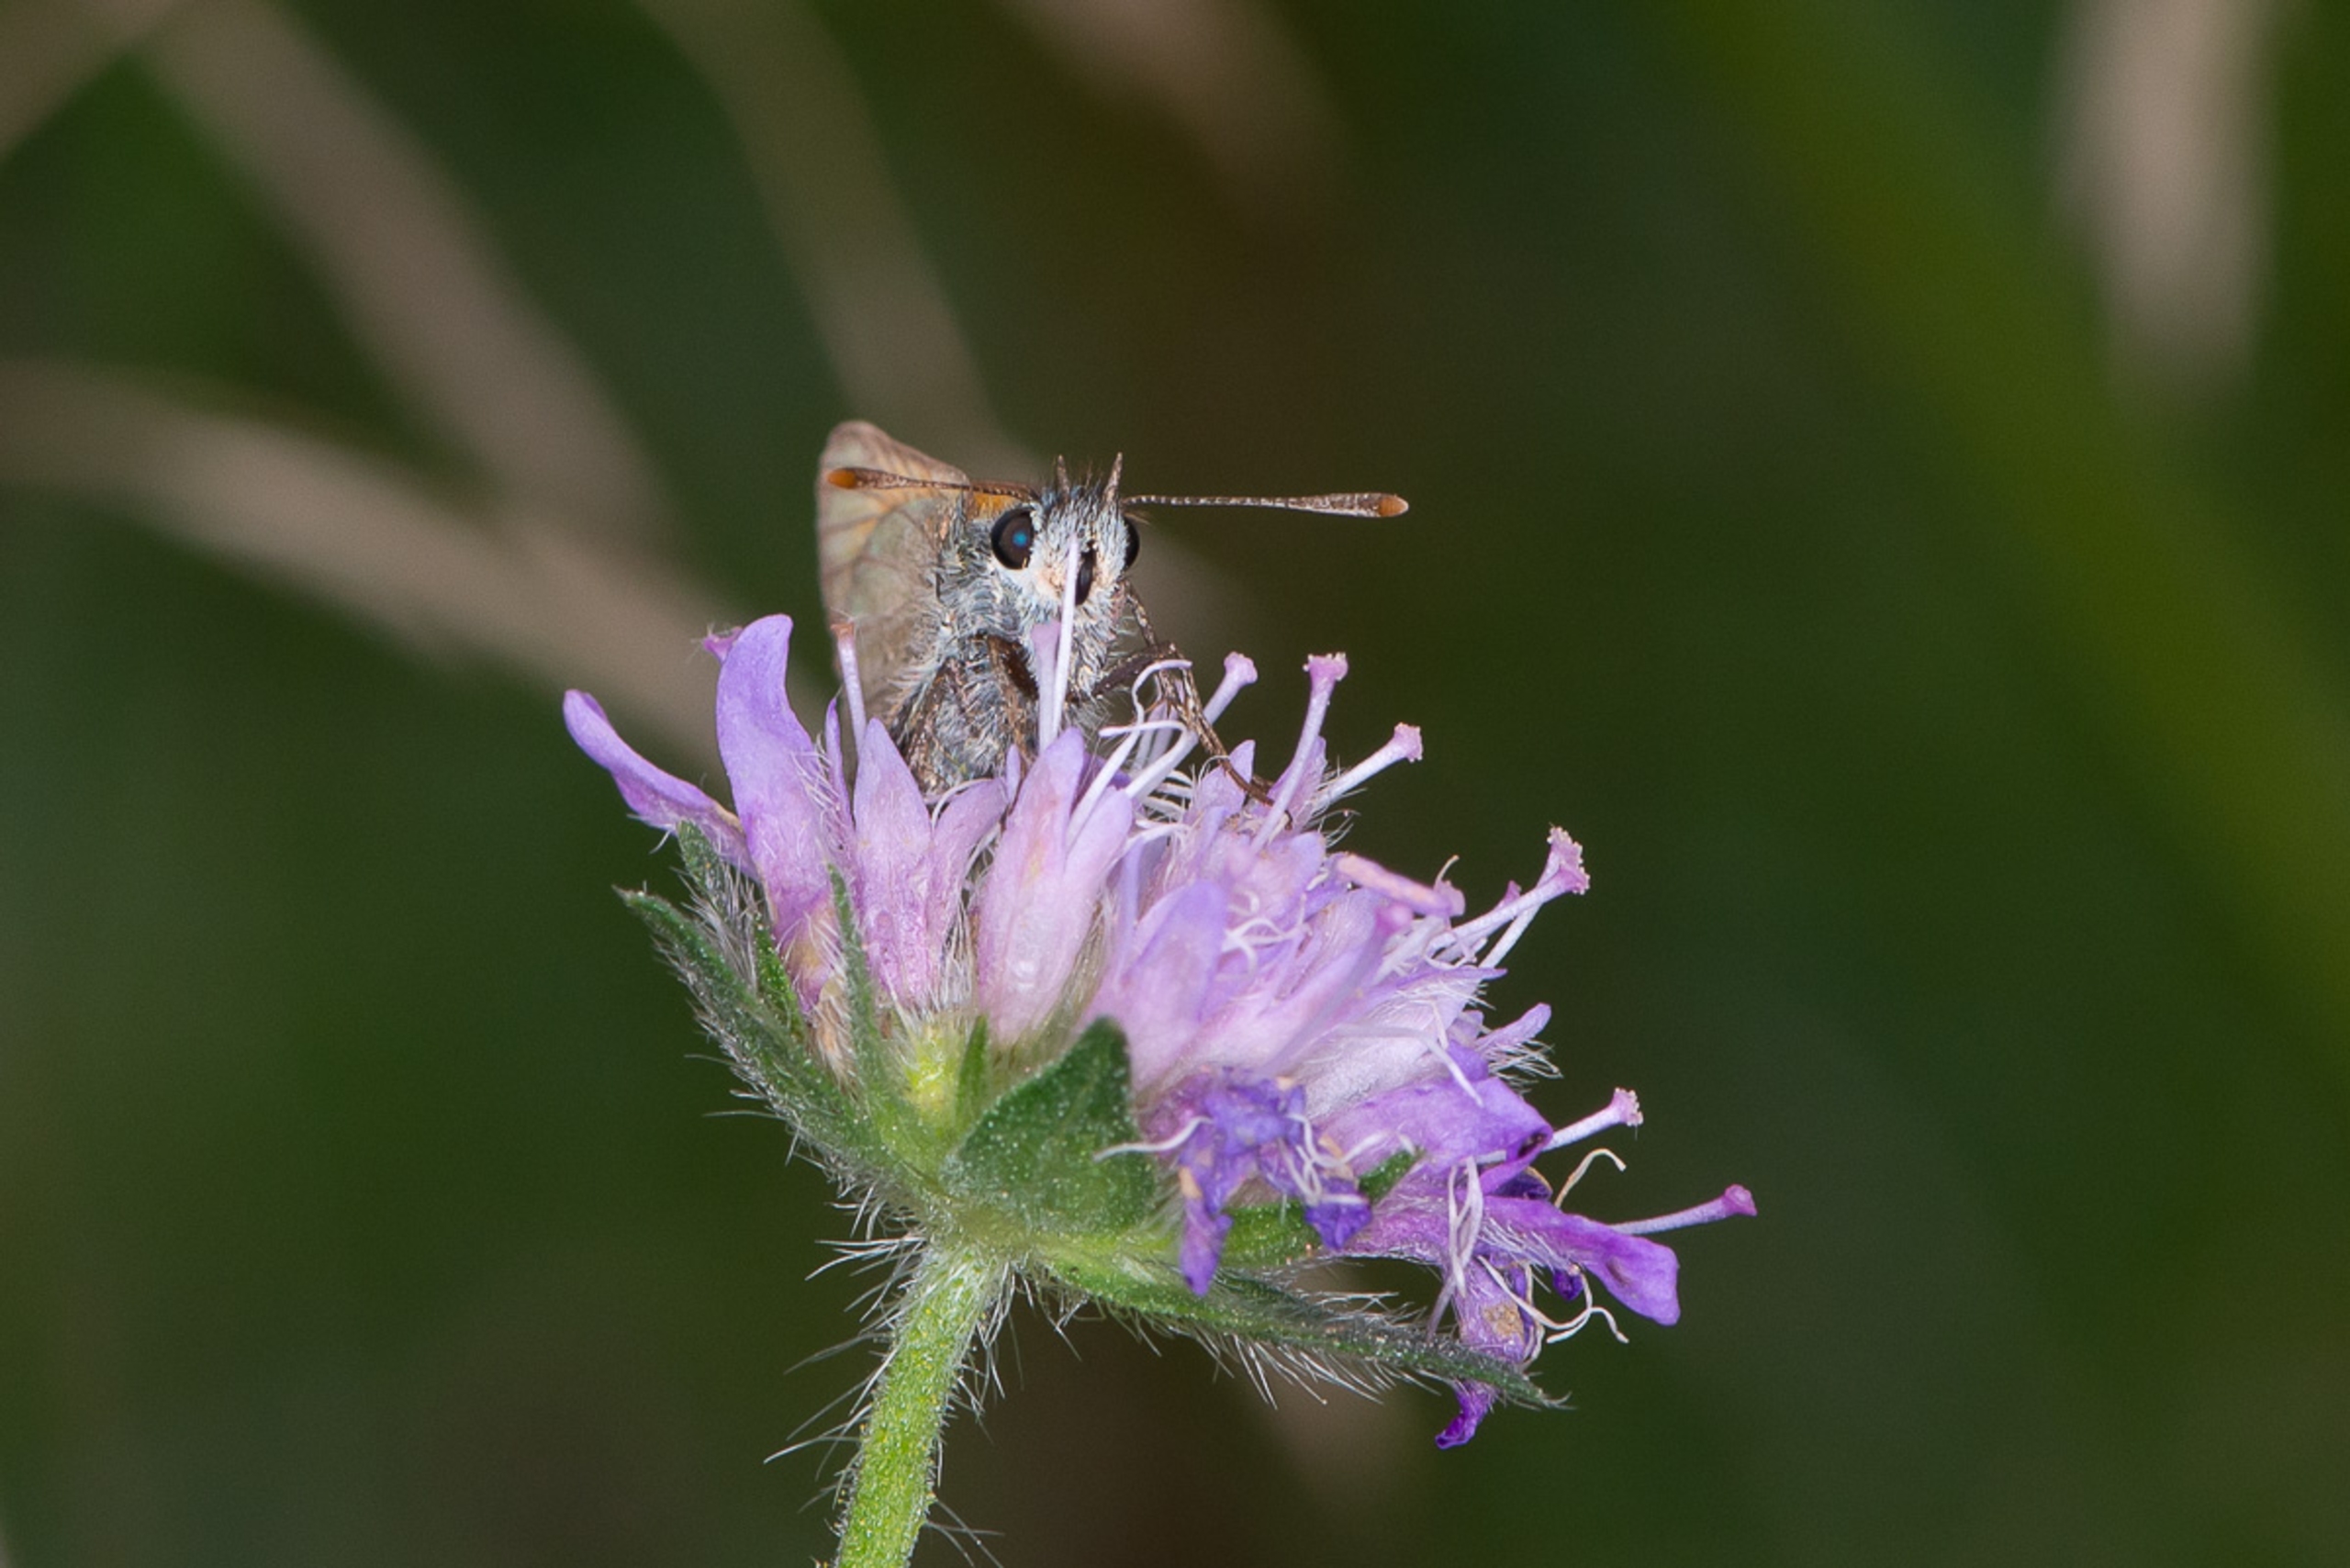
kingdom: Animalia
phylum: Arthropoda
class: Insecta
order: Lepidoptera
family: Hesperiidae
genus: Thymelicus
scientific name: Thymelicus sylvestris
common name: Skråstregbredpande
